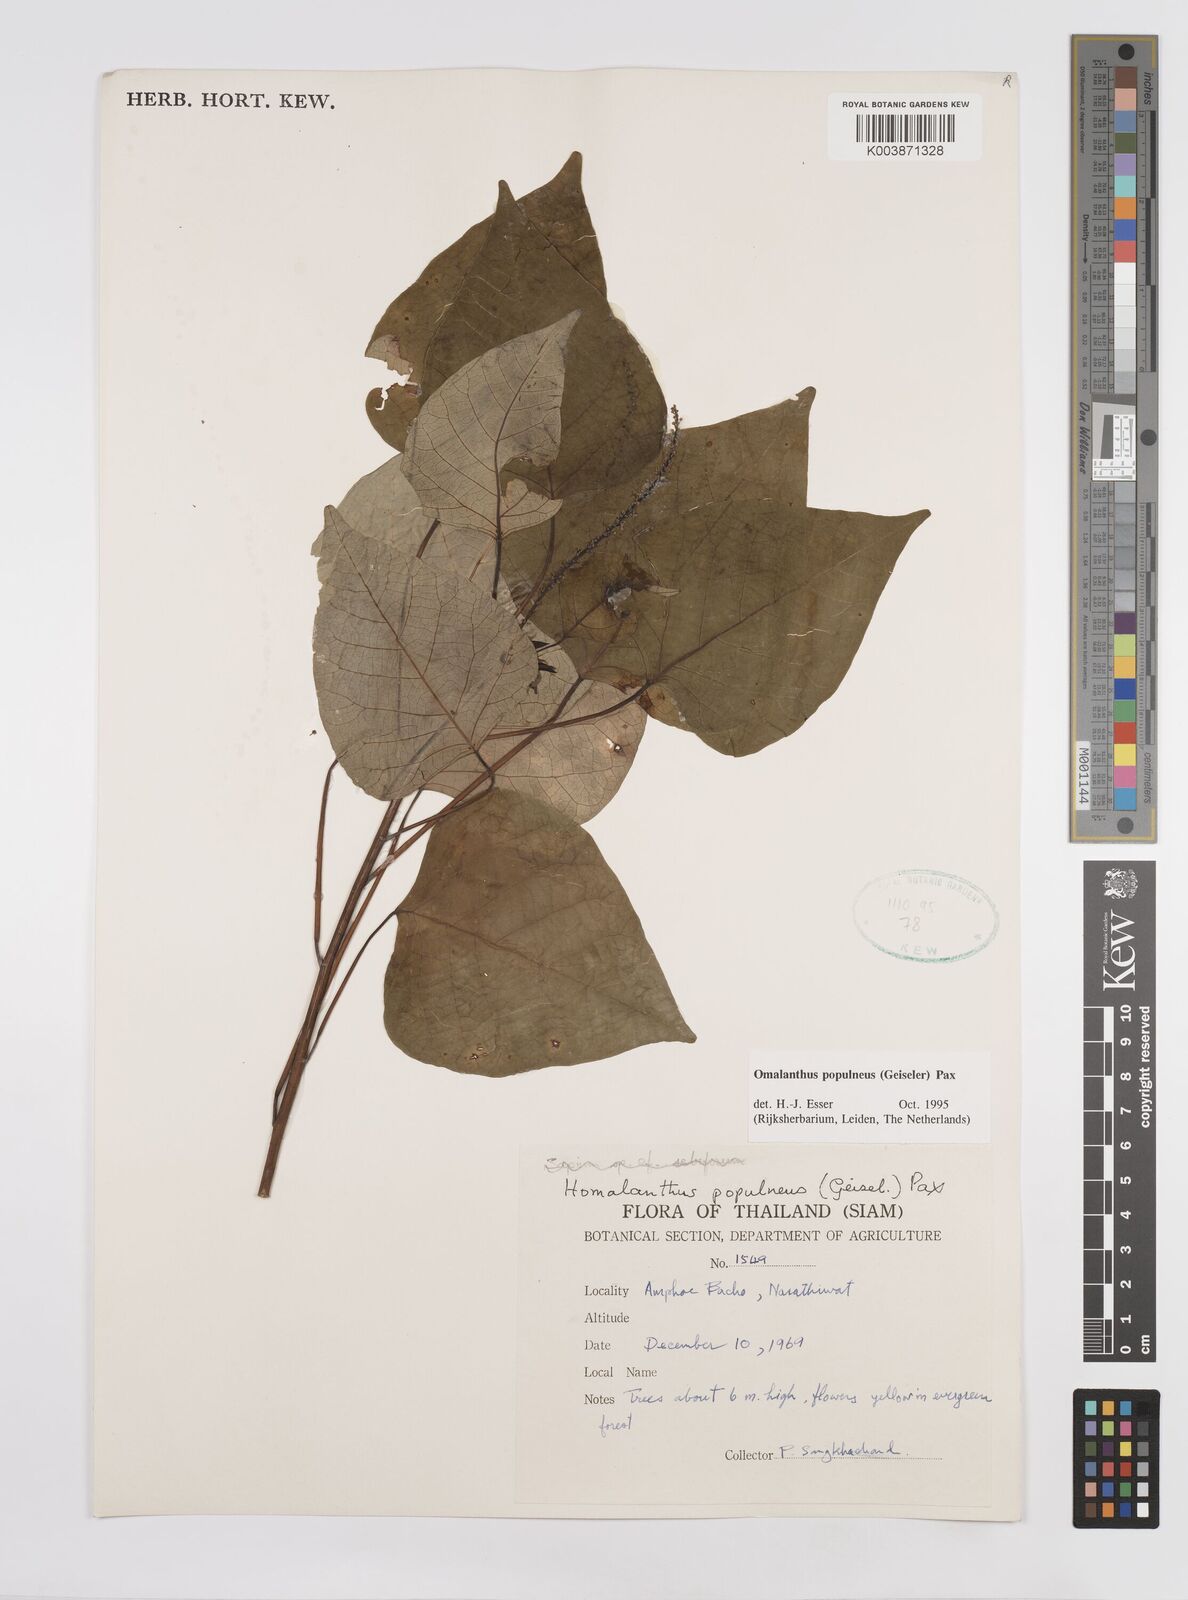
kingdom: Plantae
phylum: Tracheophyta
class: Magnoliopsida
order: Malpighiales
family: Euphorbiaceae
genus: Homalanthus
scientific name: Homalanthus populneus
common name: Spurge
